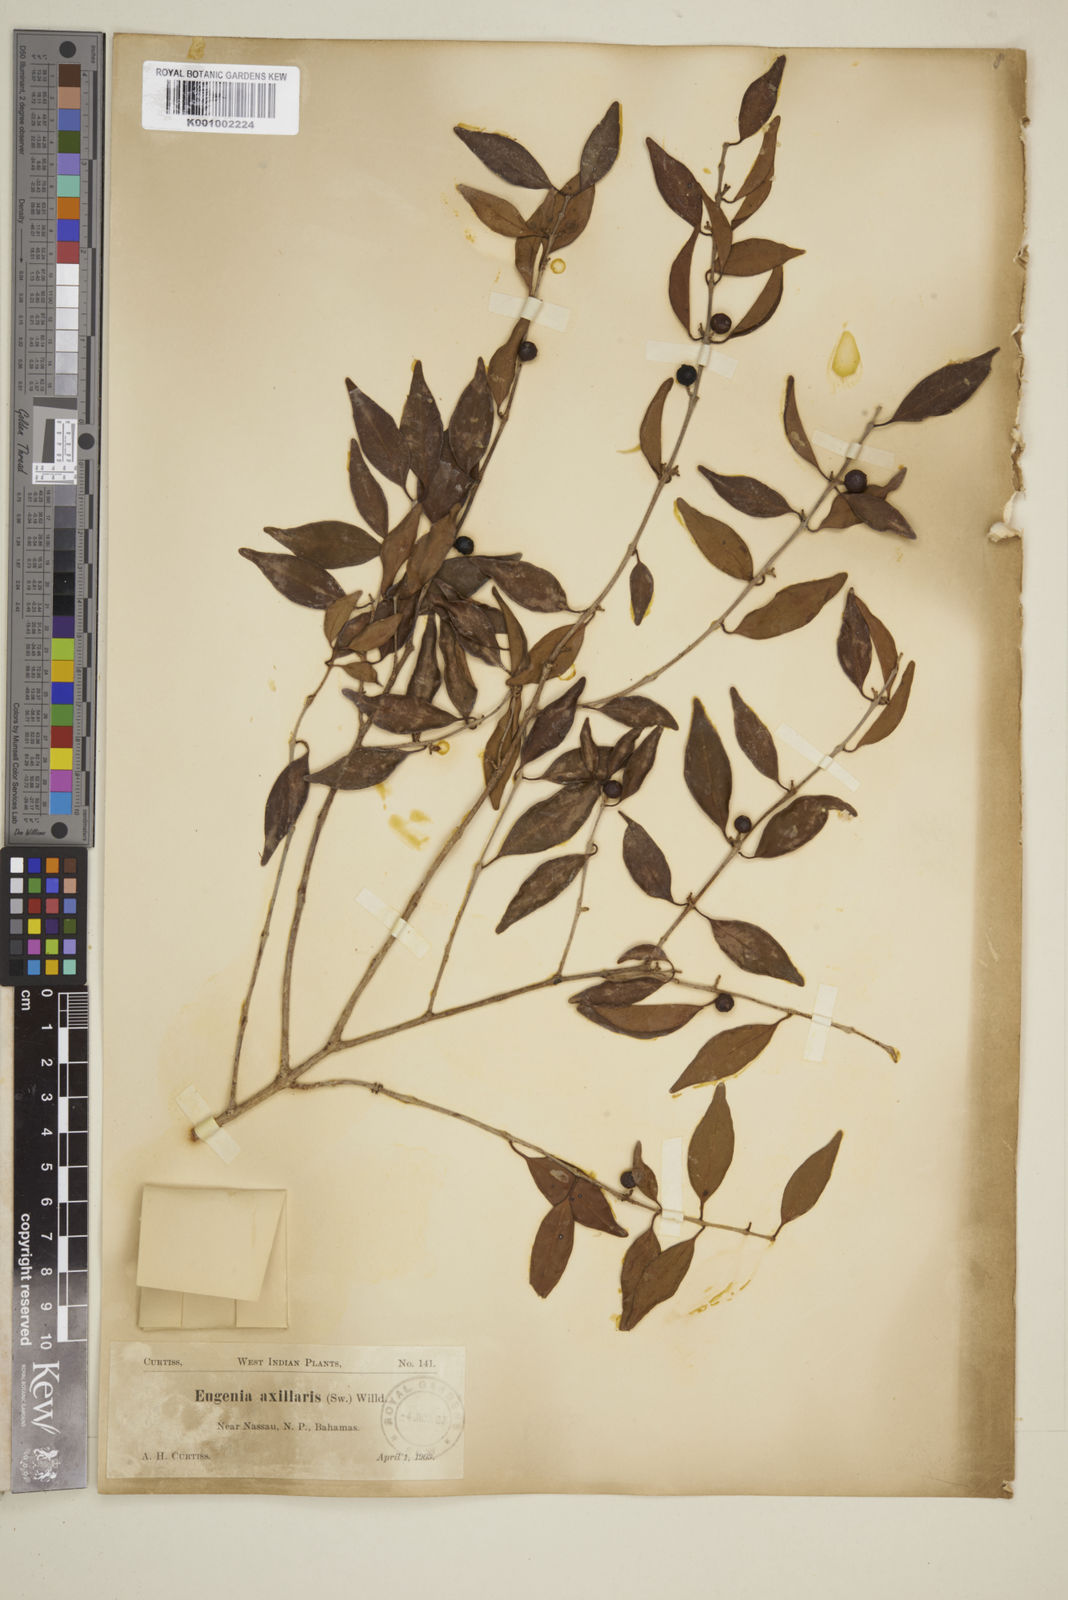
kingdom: Plantae
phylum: Tracheophyta
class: Magnoliopsida
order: Myrtales
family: Myrtaceae
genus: Eugenia
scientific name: Eugenia axillaris
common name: Choaky berry
